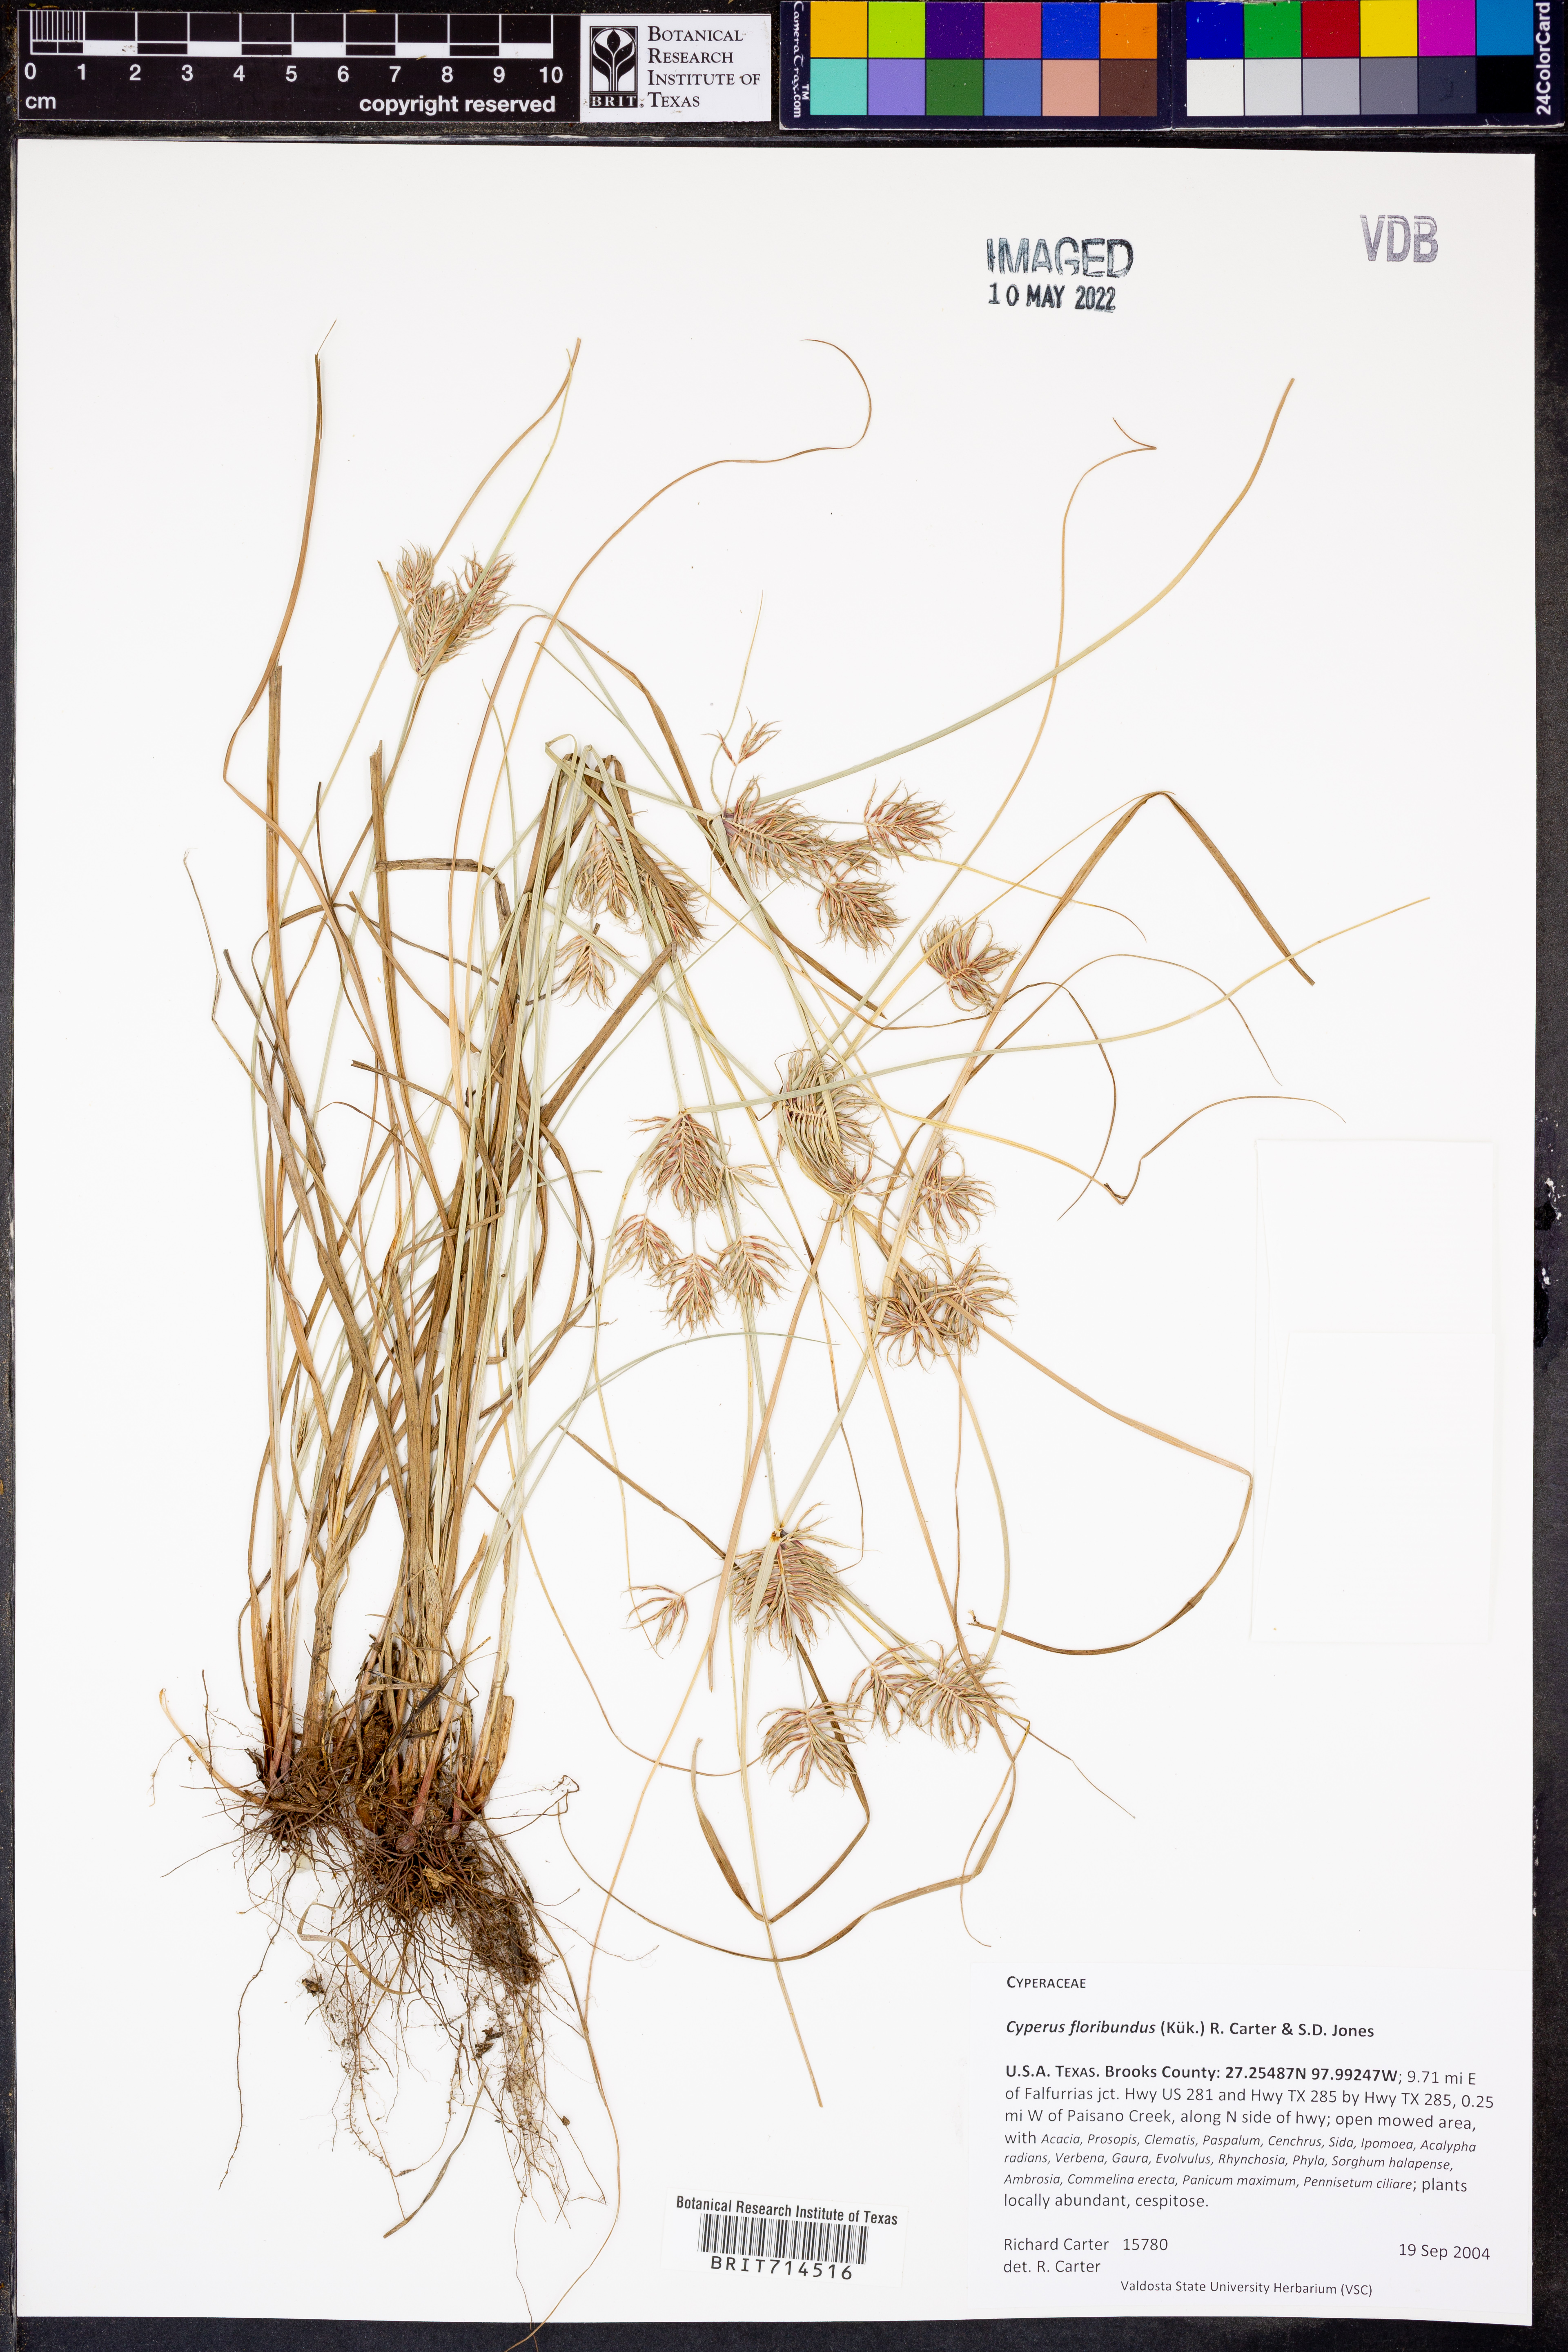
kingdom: Plantae
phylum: Tracheophyta
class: Liliopsida
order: Poales
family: Cyperaceae
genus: Cyperus
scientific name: Cyperus floribundus
